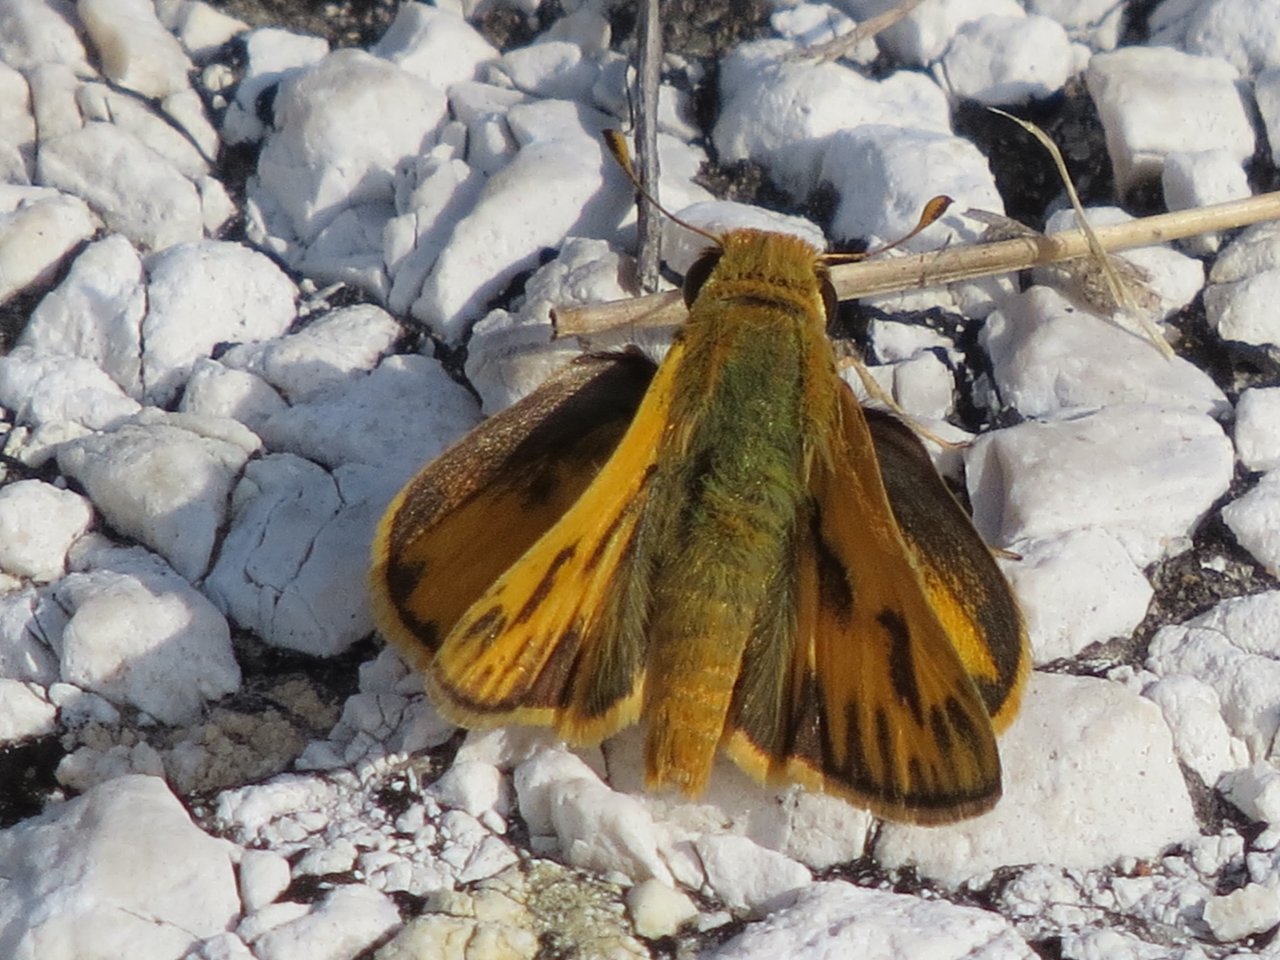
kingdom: Animalia
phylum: Arthropoda
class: Insecta
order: Lepidoptera
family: Hesperiidae
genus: Polites
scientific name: Polites vibex
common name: Whirlabout
